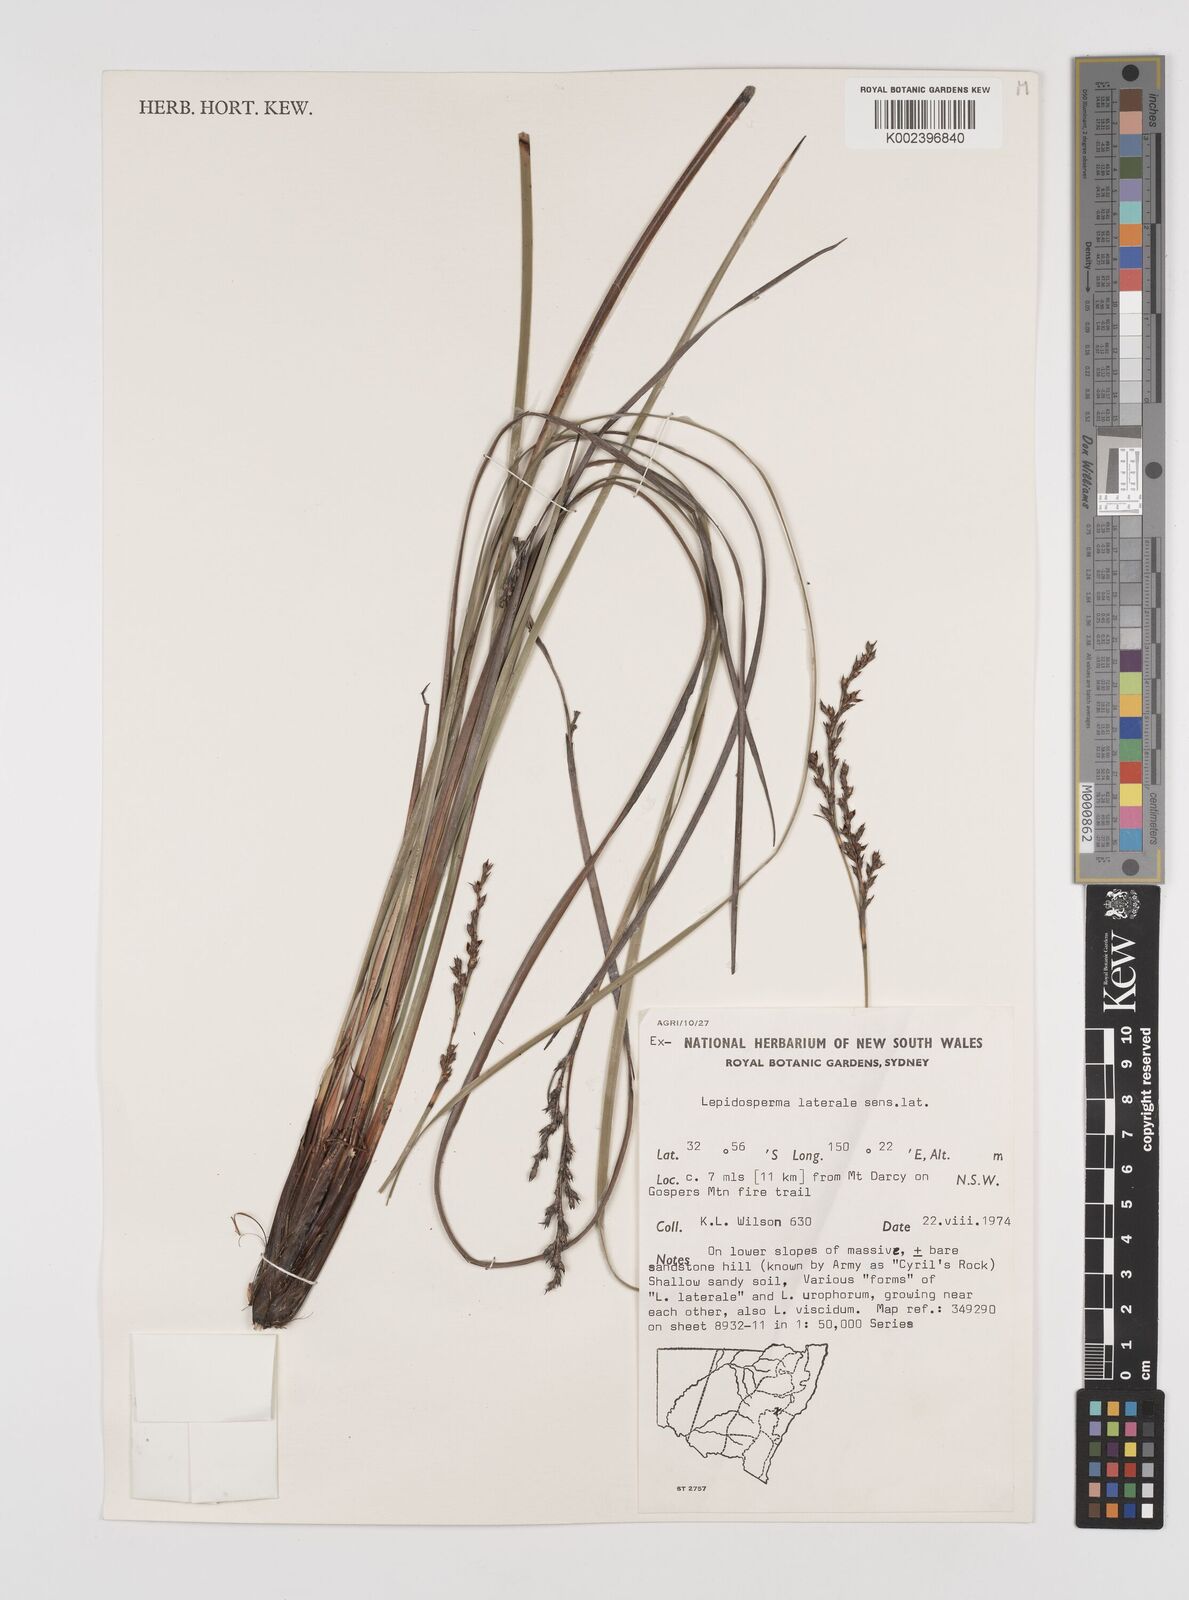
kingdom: Plantae
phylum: Tracheophyta
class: Liliopsida
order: Poales
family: Cyperaceae
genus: Lepidosperma
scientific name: Lepidosperma laterale
